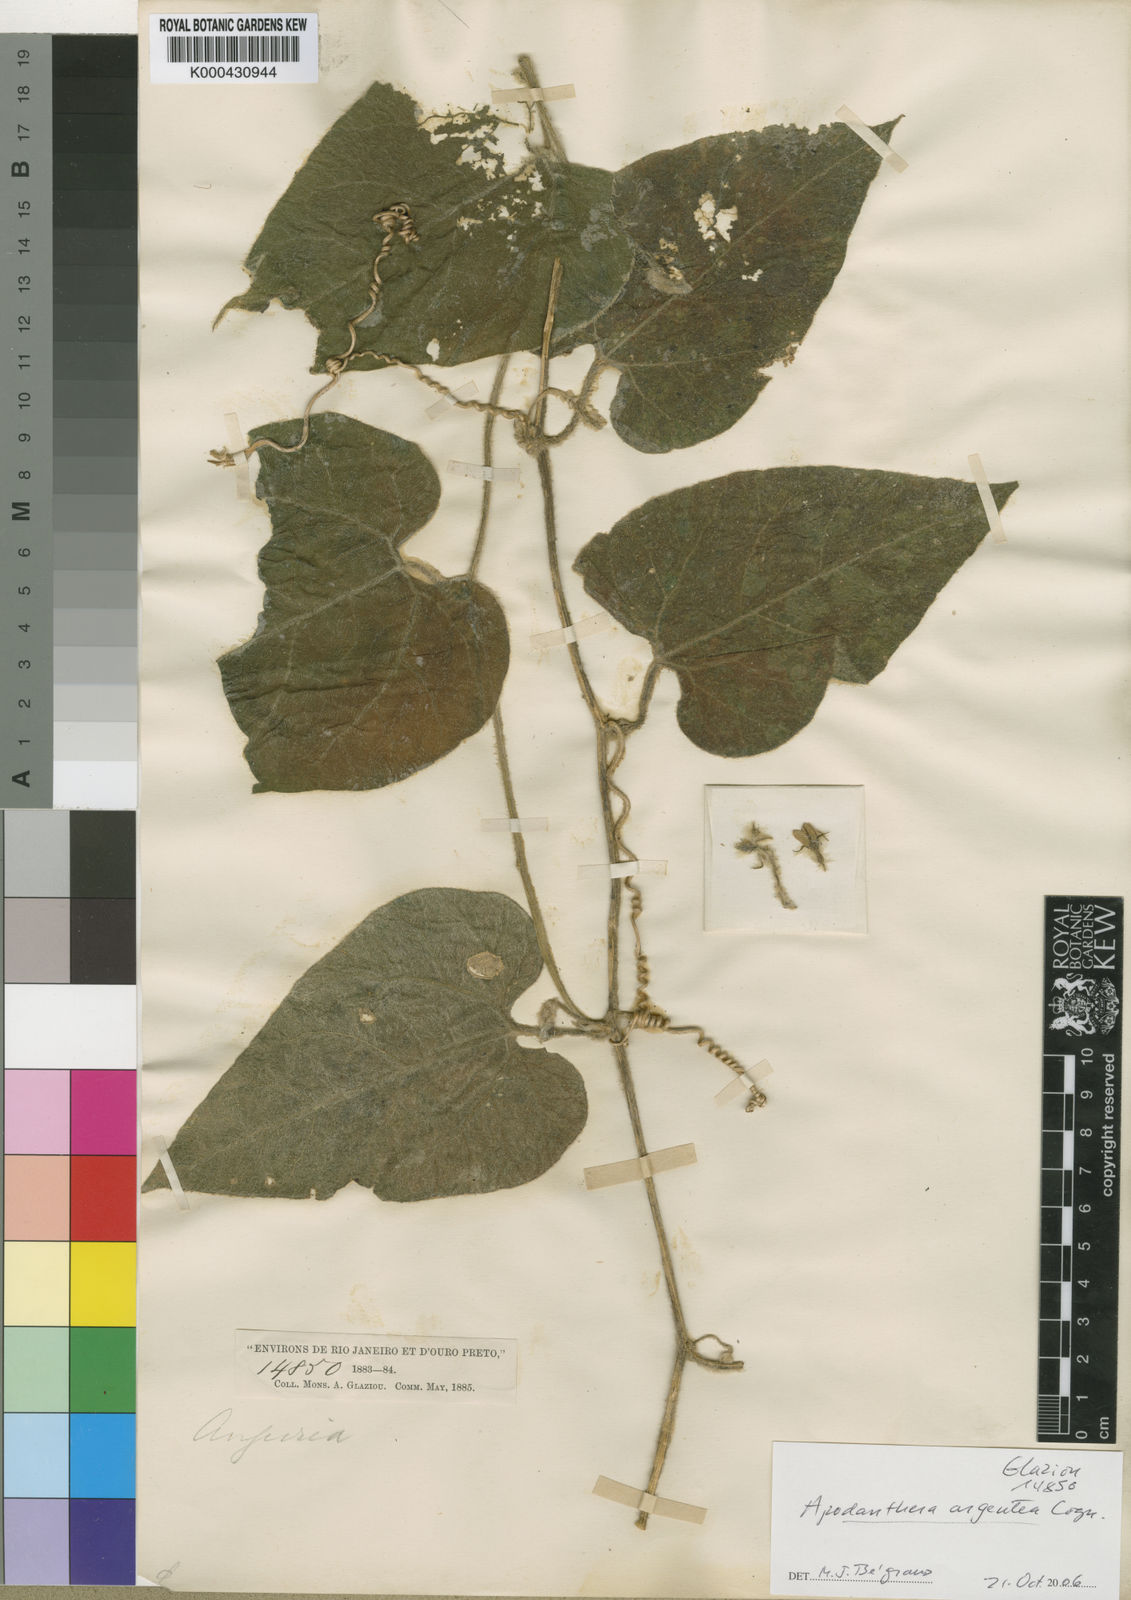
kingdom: Plantae
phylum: Tracheophyta
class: Magnoliopsida
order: Cucurbitales
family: Cucurbitaceae
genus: Apodanthera
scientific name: Apodanthera argentea
